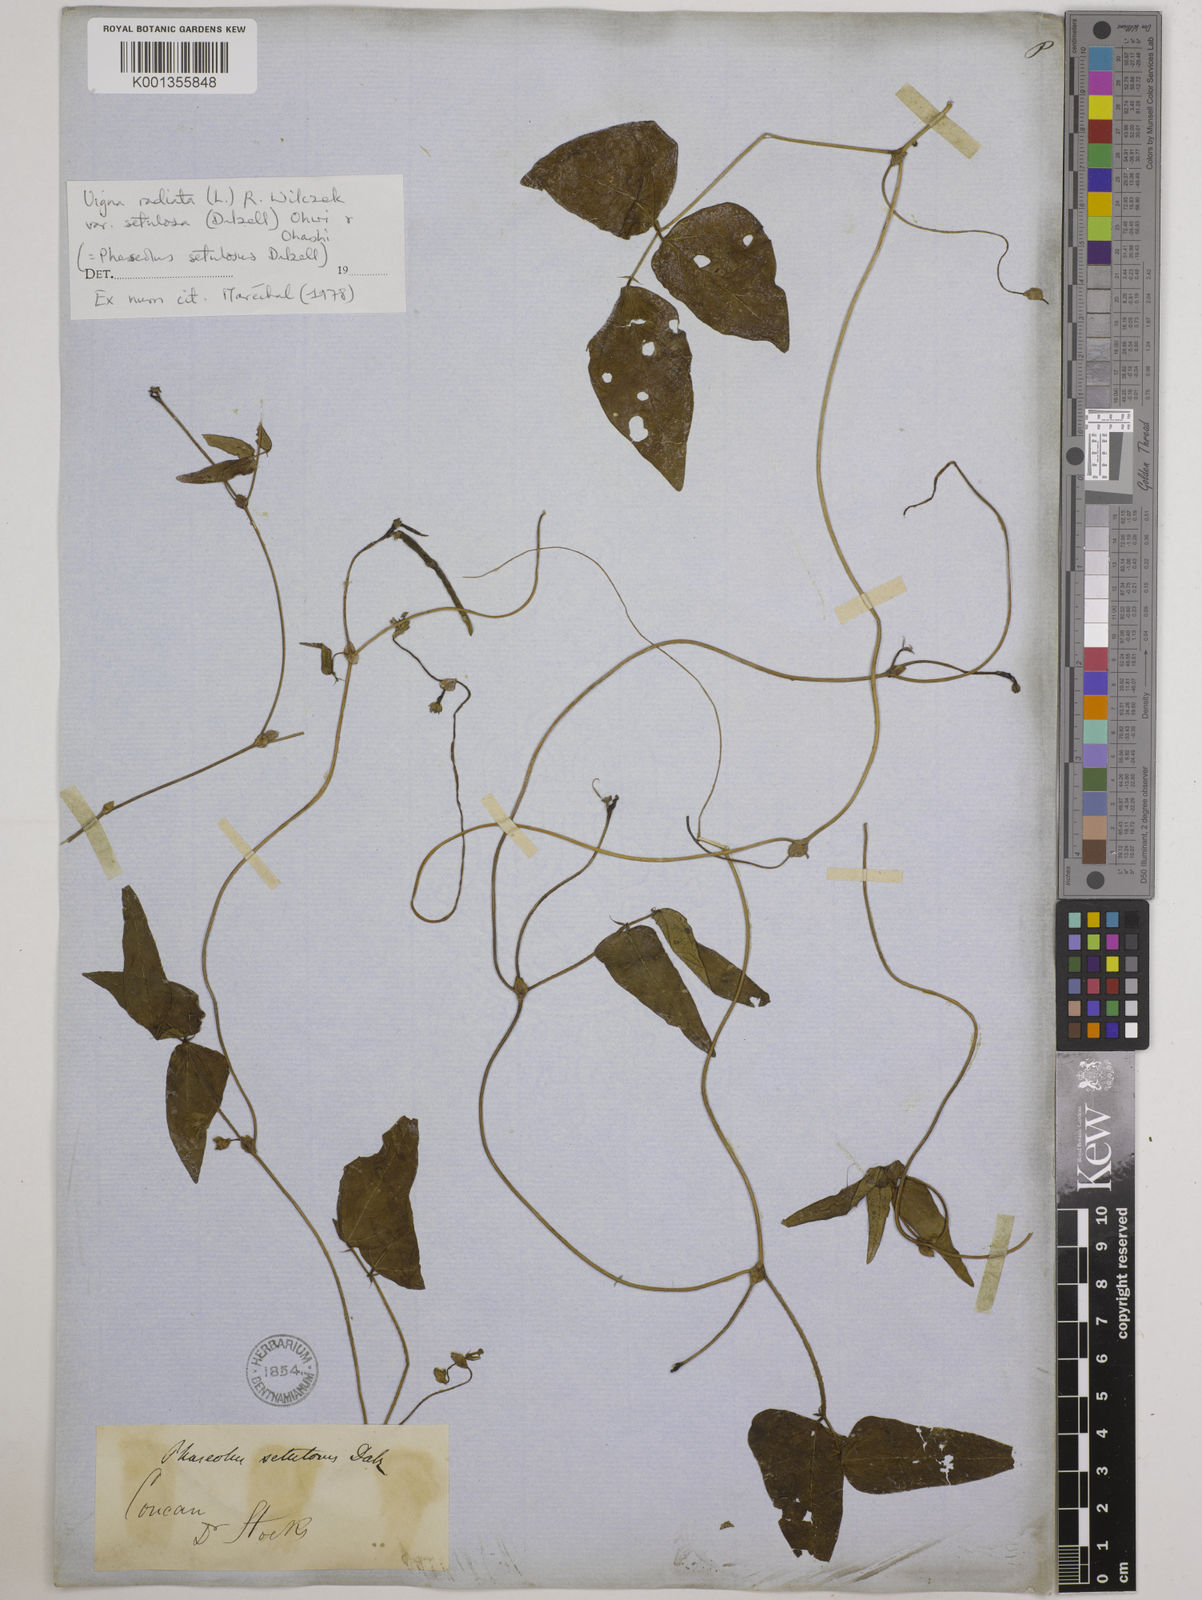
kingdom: Plantae
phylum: Tracheophyta
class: Magnoliopsida
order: Fabales
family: Fabaceae
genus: Vigna
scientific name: Vigna radiata
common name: Mung-bean
